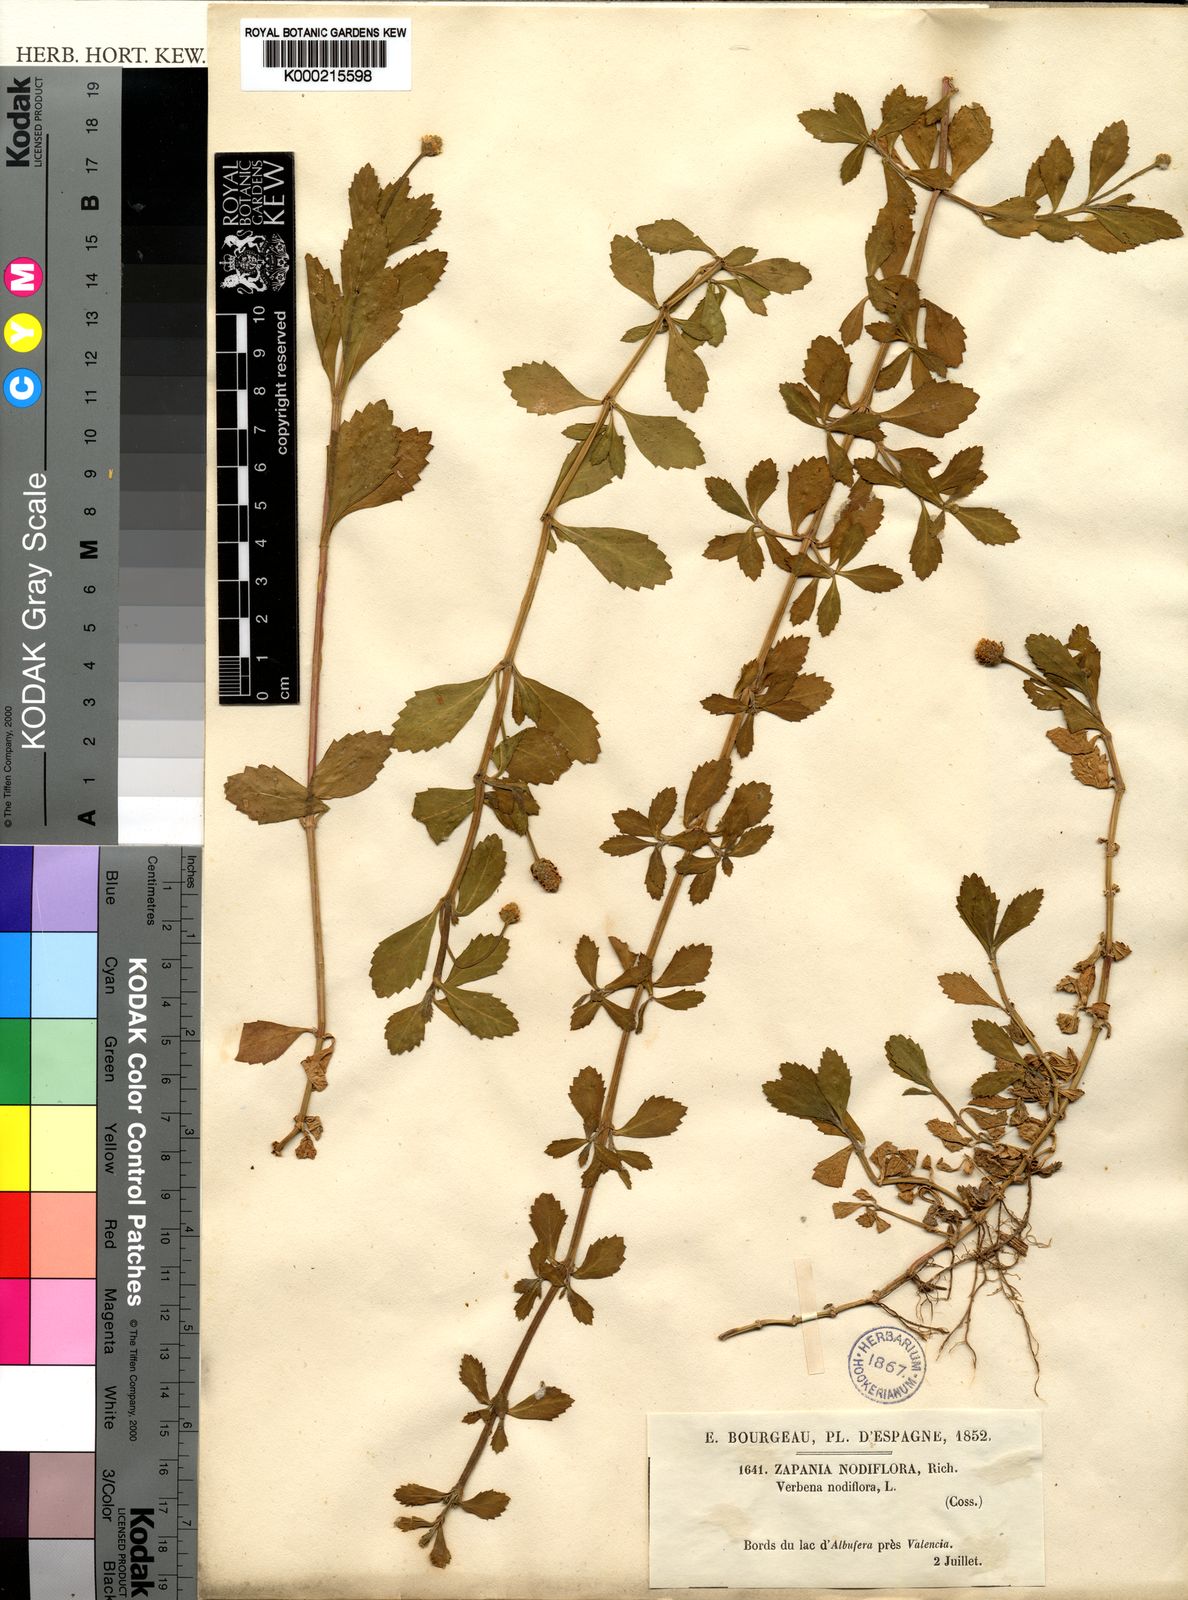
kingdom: Plantae
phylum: Tracheophyta
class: Magnoliopsida
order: Lamiales
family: Verbenaceae
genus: Phyla
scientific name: Phyla nodiflora
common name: Frogfruit
